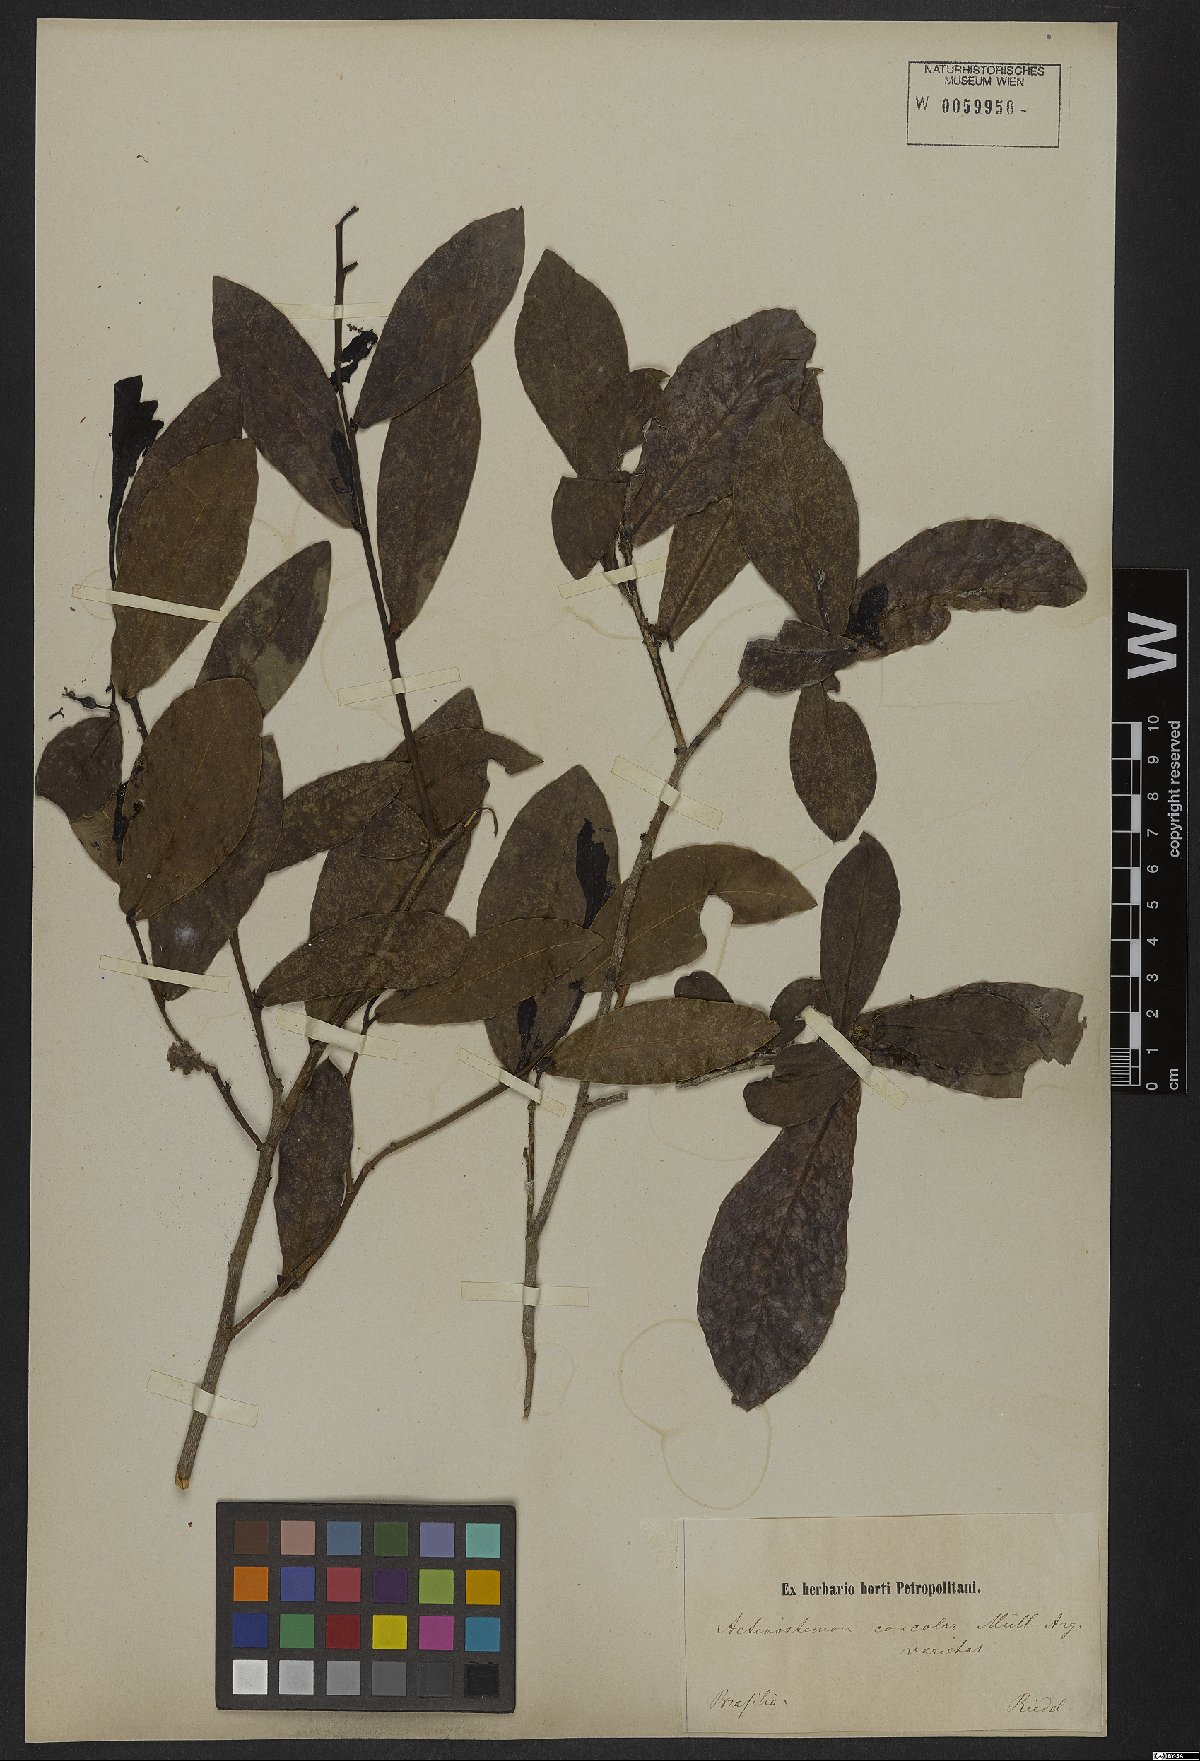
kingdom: Plantae
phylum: Tracheophyta
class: Magnoliopsida
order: Malpighiales
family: Euphorbiaceae
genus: Actinostemon
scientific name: Actinostemon concolor
